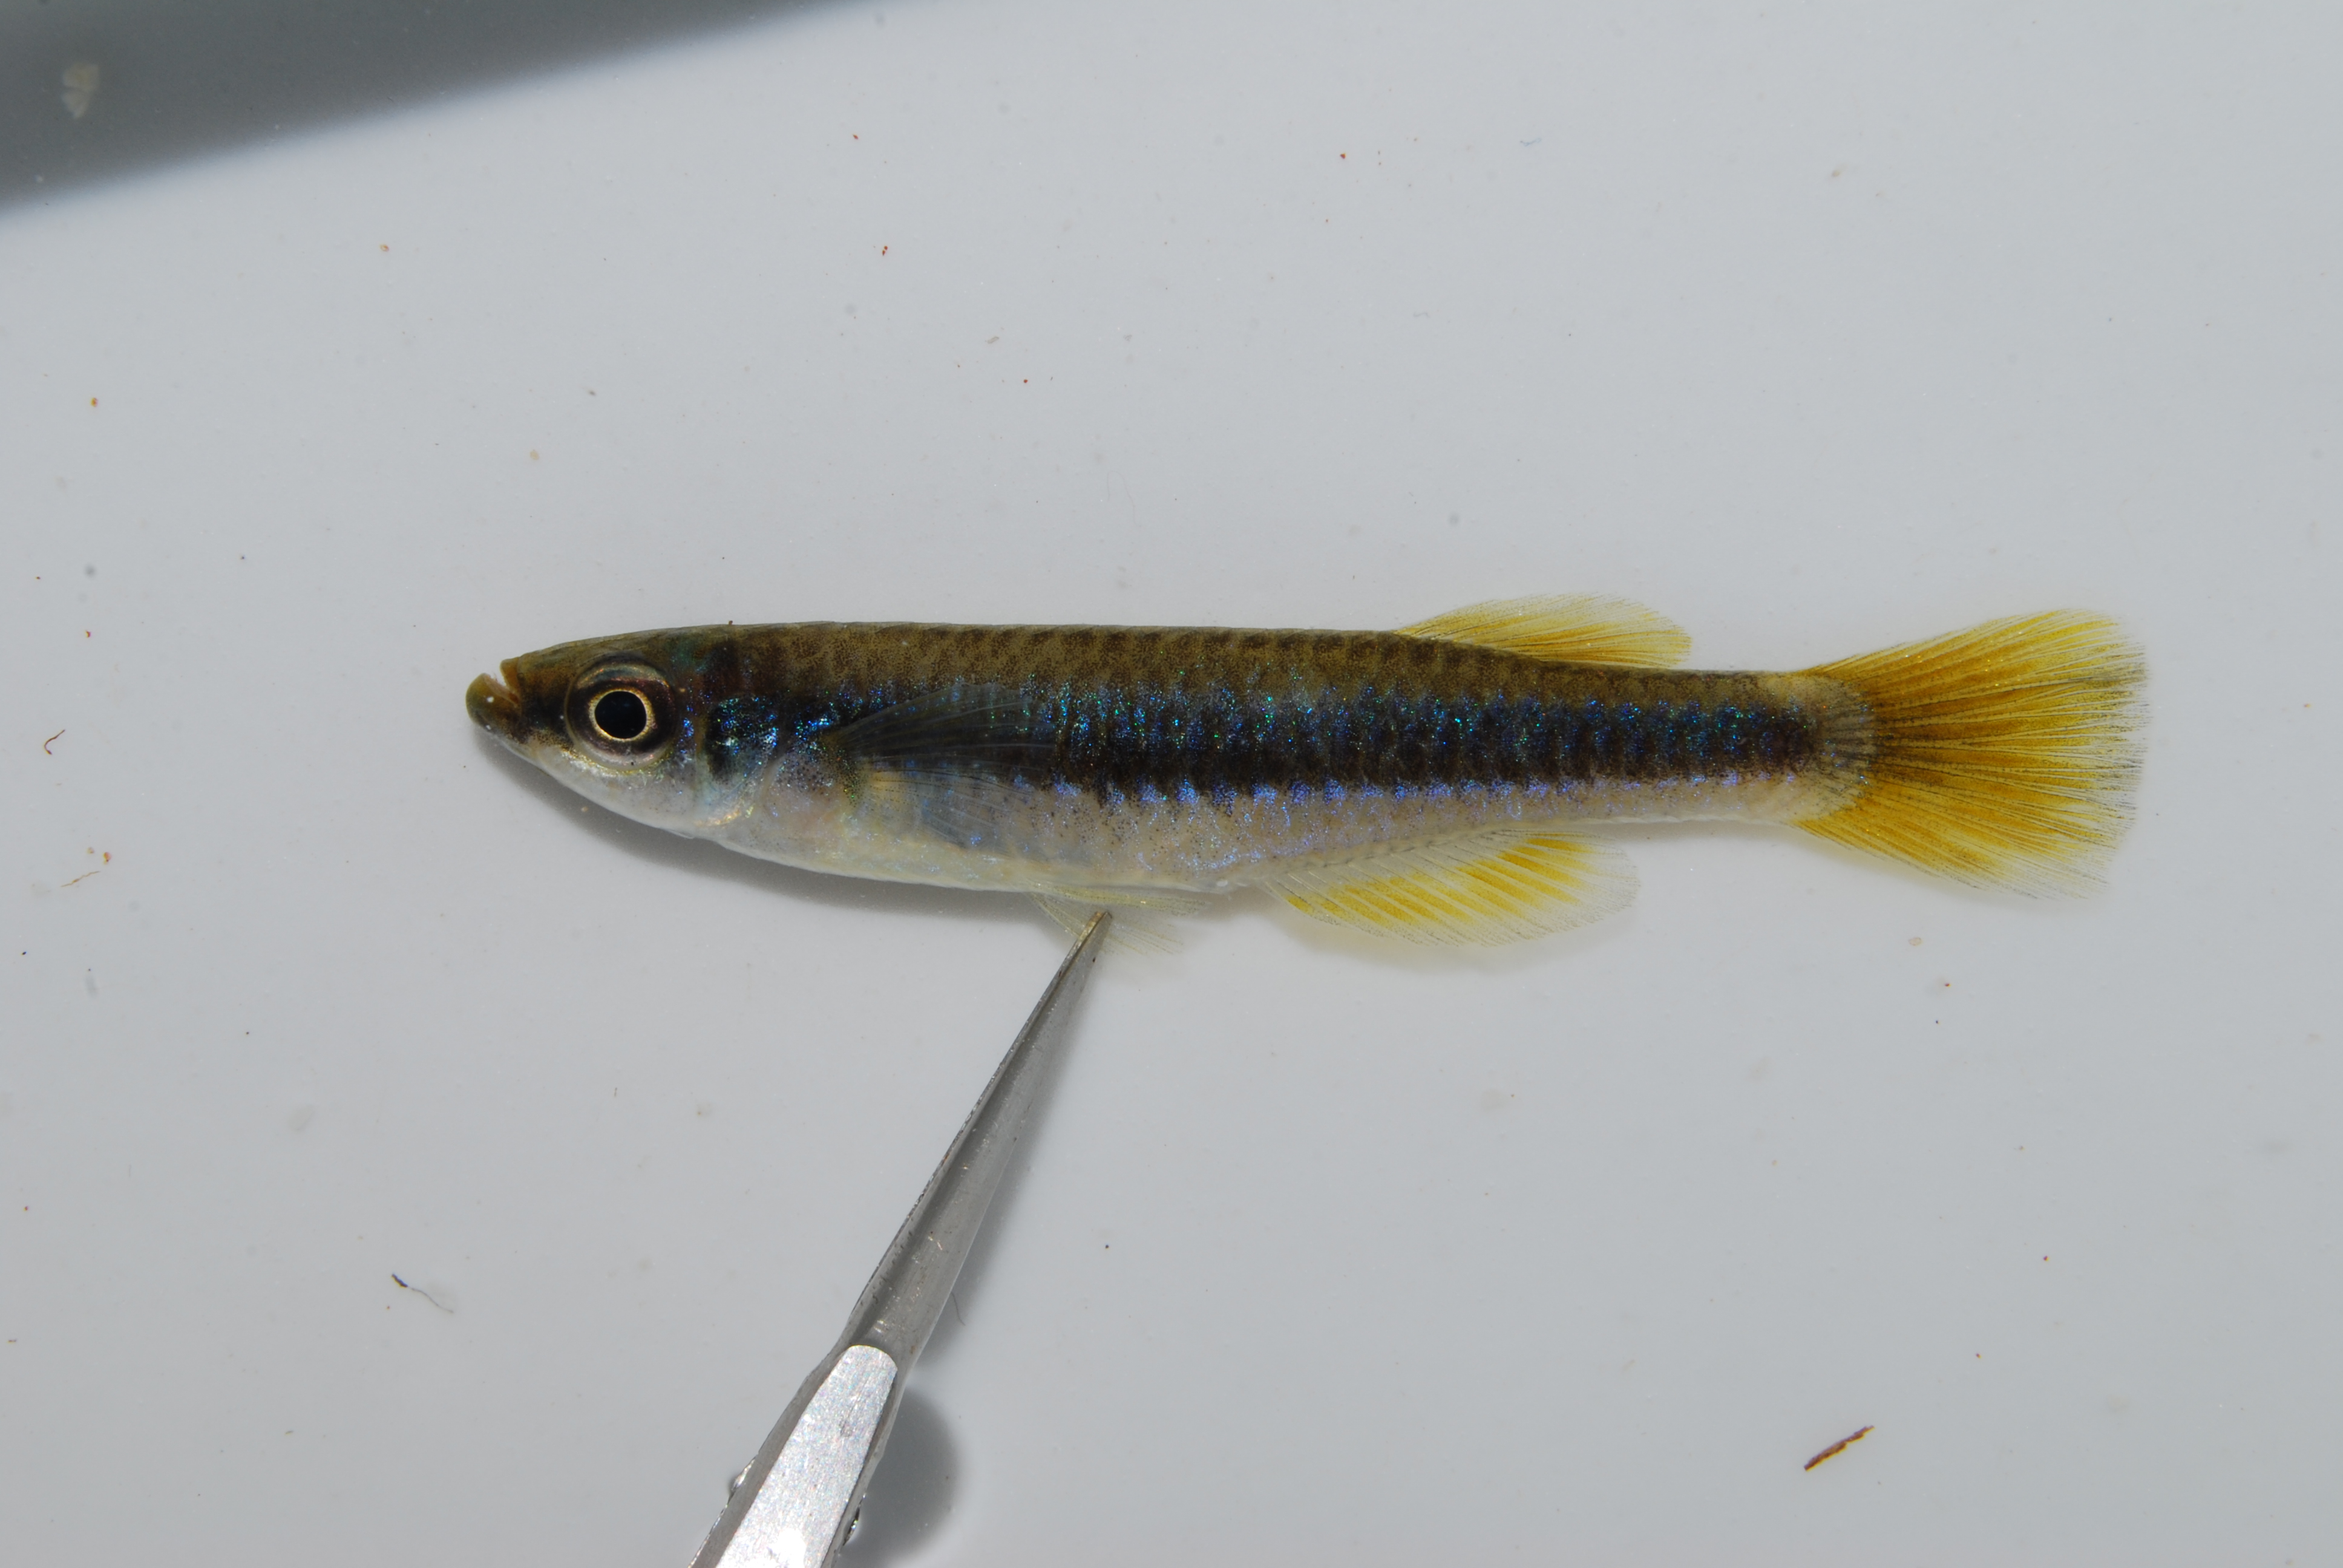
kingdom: Animalia
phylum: Chordata
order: Cyprinodontiformes
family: Poeciliidae
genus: Micropanchax
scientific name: Micropanchax johnstoni
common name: Johnston's topminnow
